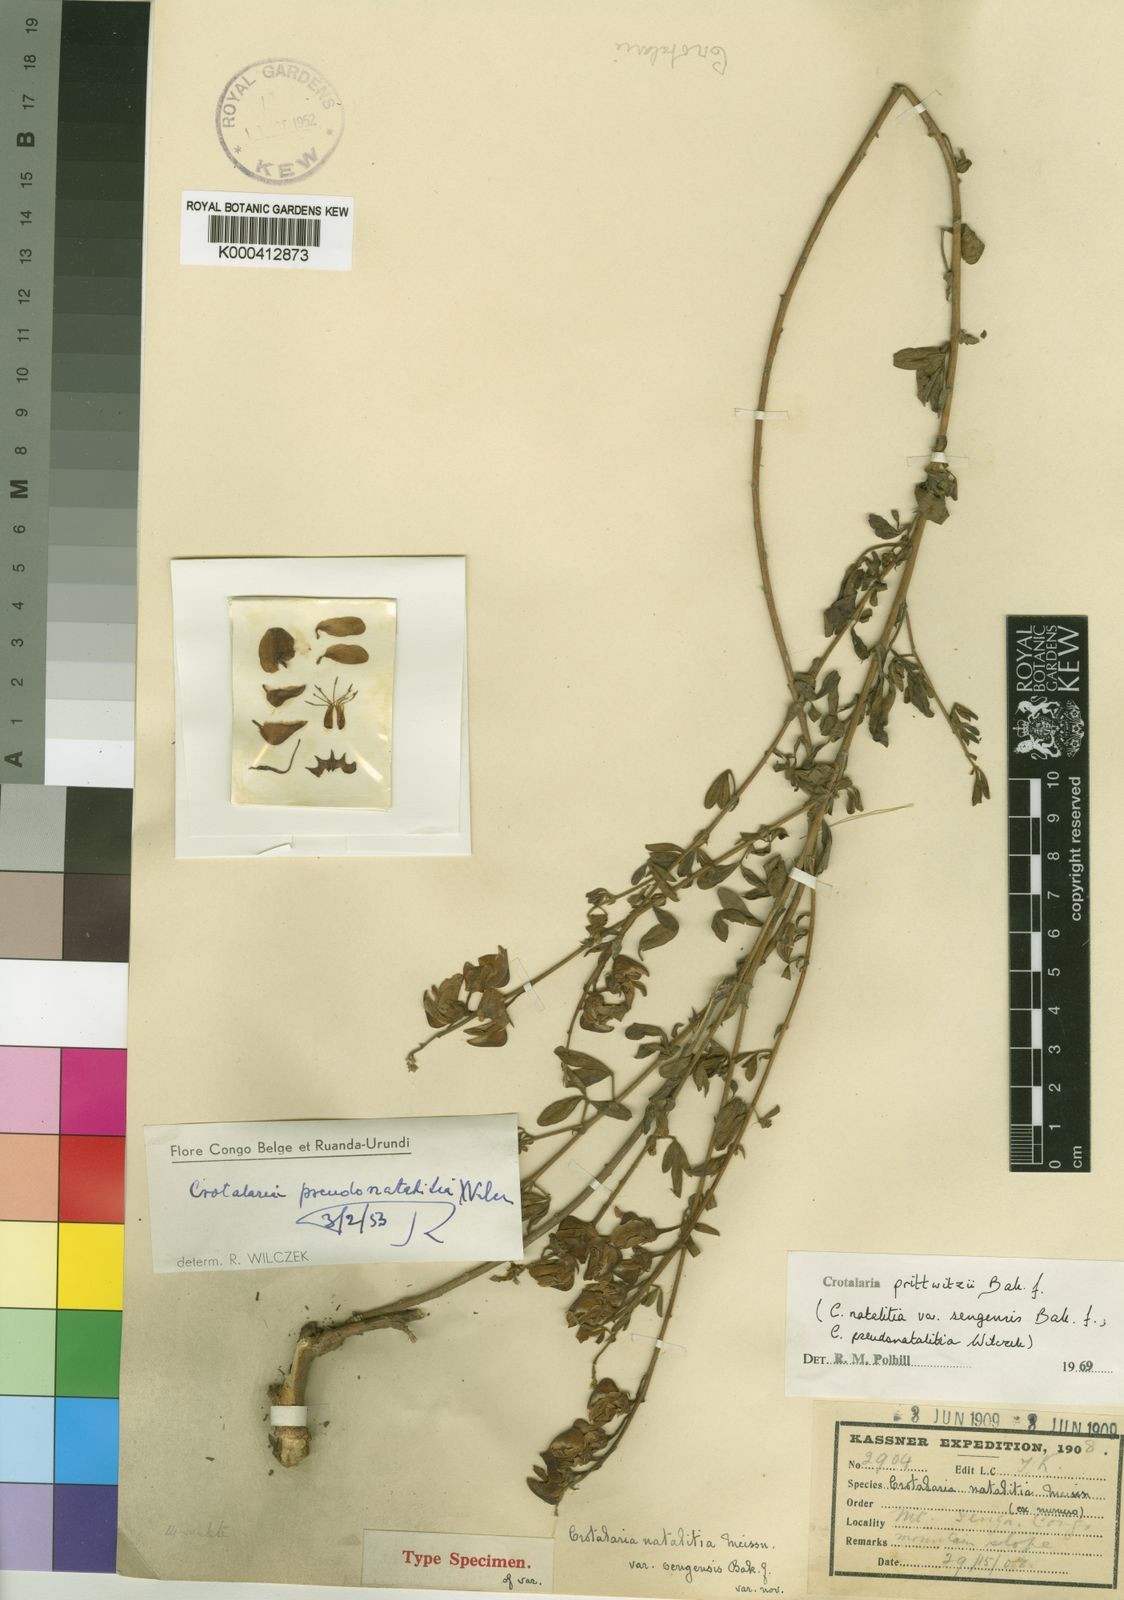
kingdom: Plantae
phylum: Tracheophyta
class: Magnoliopsida
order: Fabales
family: Fabaceae
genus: Crotalaria
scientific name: Crotalaria prittwitzii
